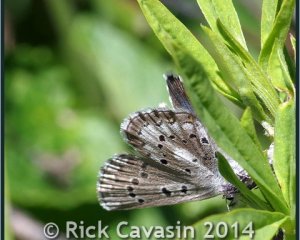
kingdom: Animalia
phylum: Arthropoda
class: Insecta
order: Lepidoptera
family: Lycaenidae
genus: Glaucopsyche
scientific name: Glaucopsyche piasus
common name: Arrowhead Blue
